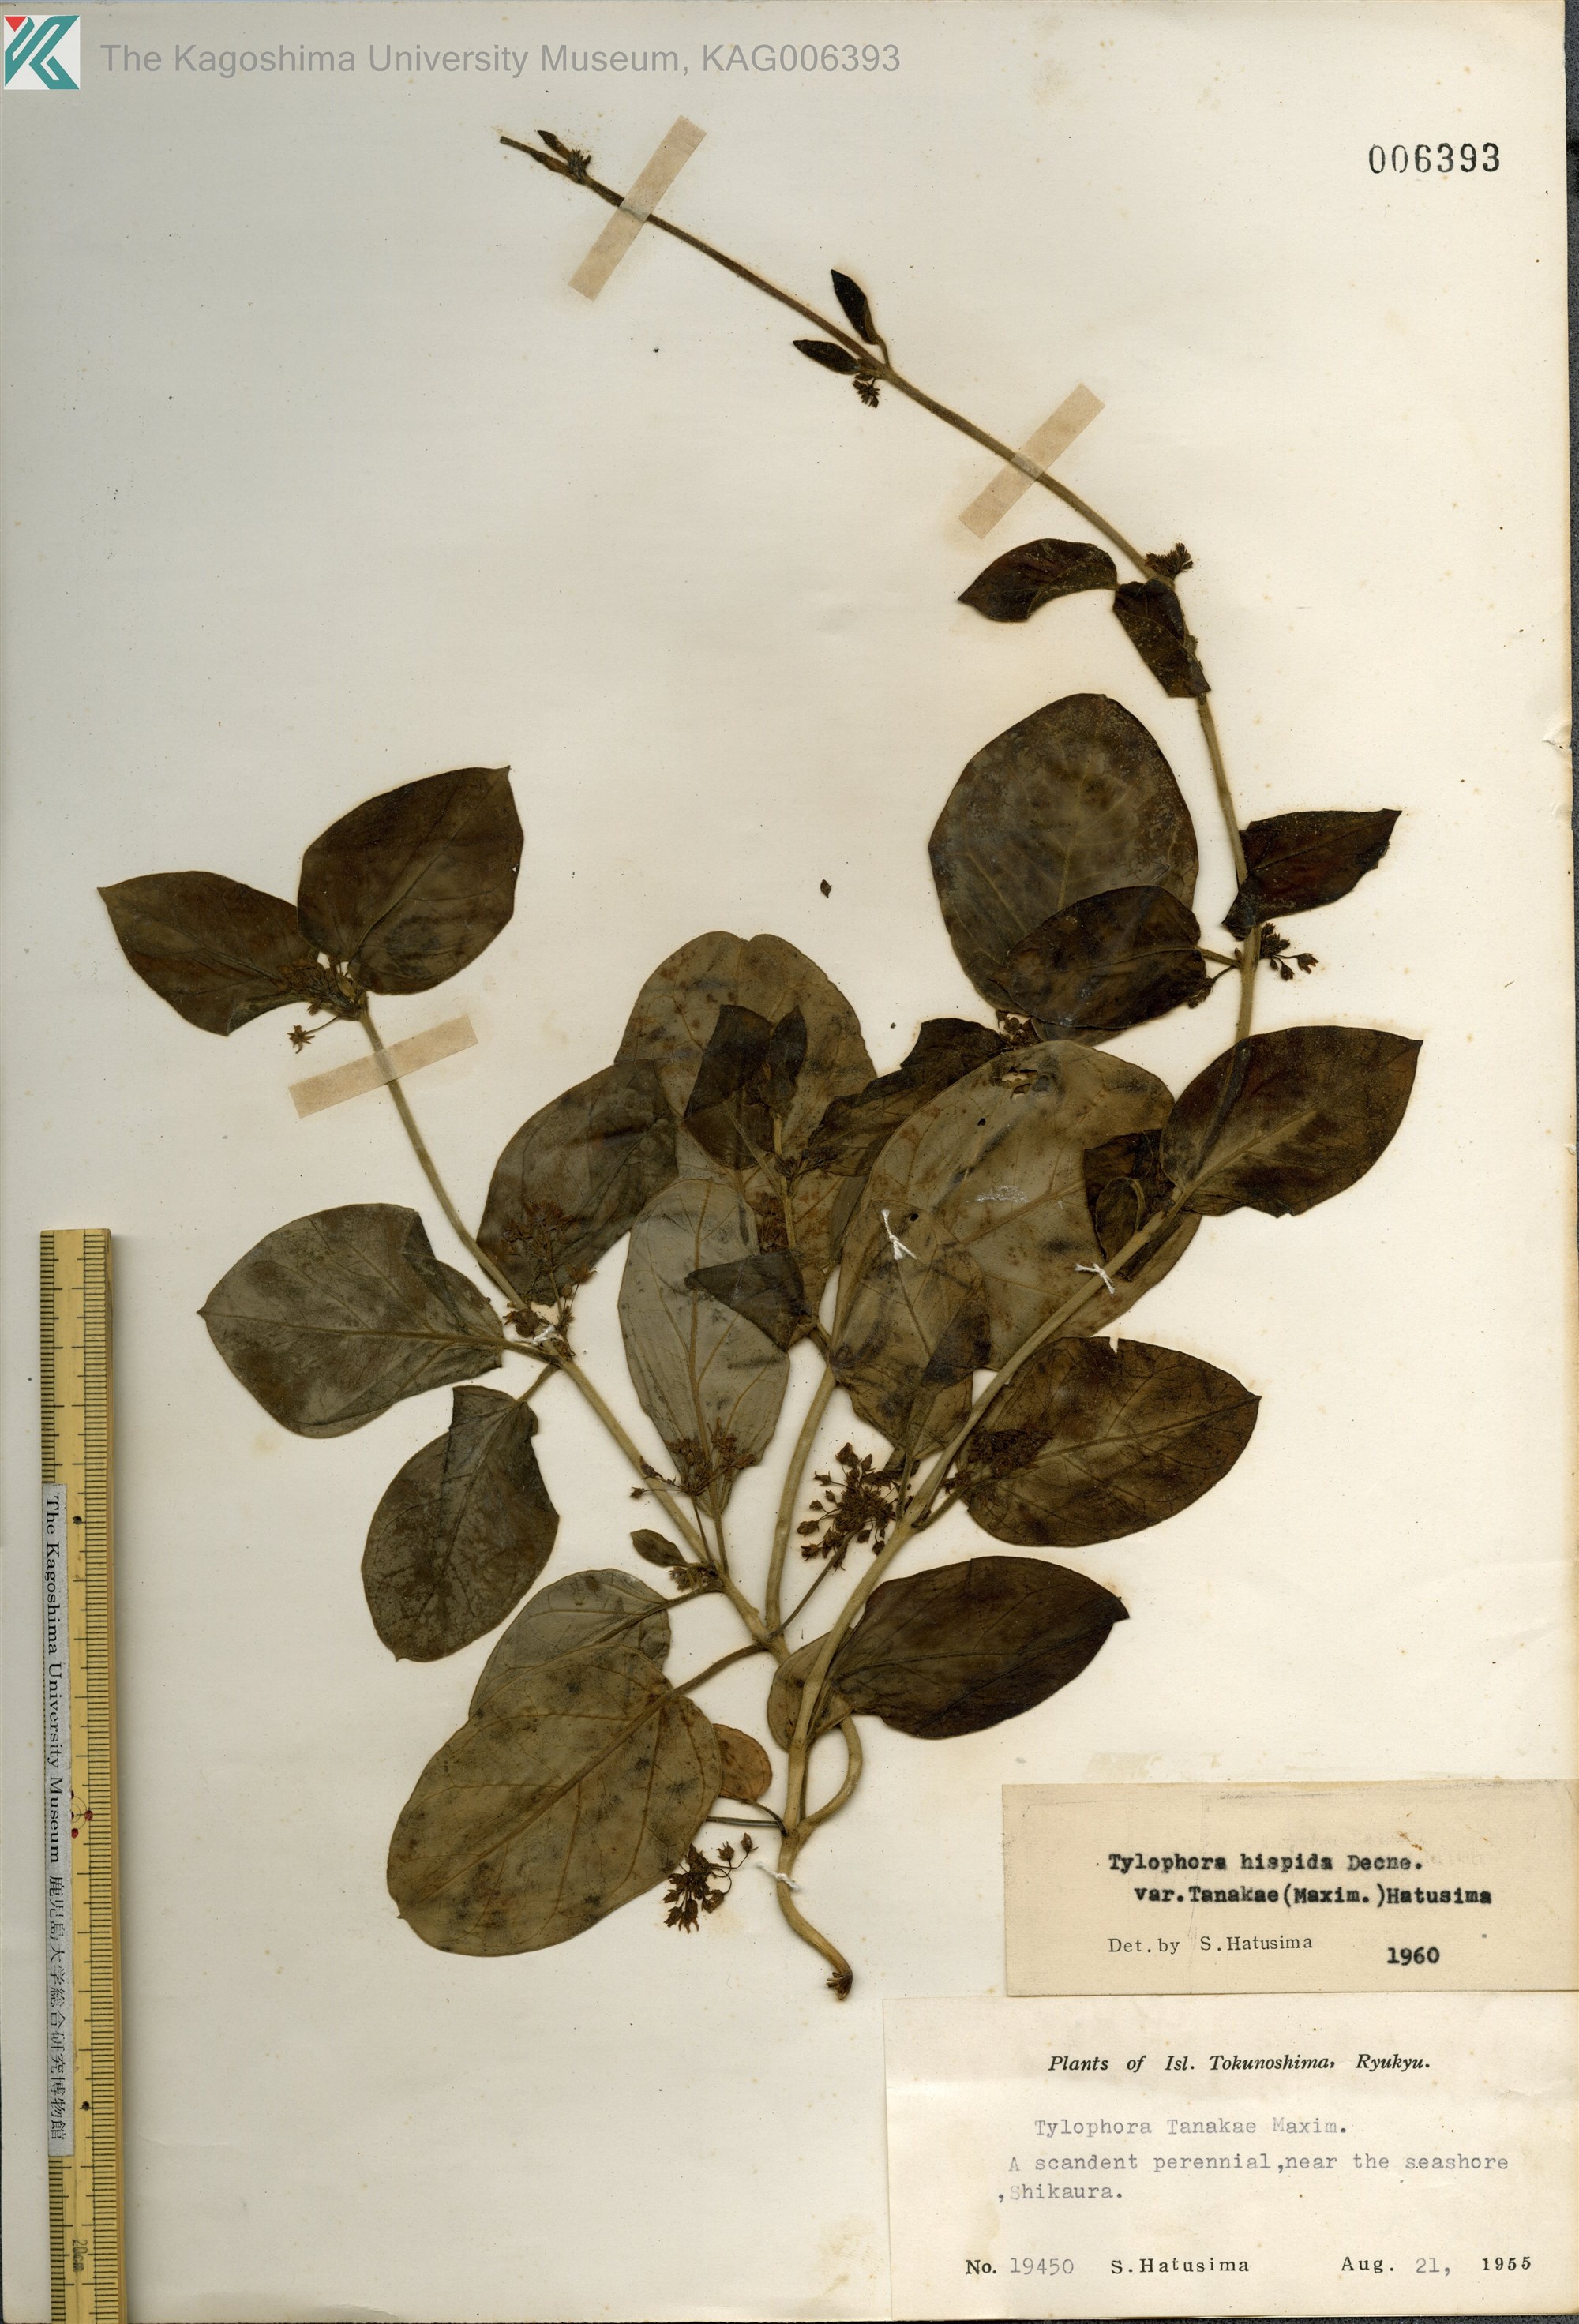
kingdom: Plantae
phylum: Tracheophyta
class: Magnoliopsida
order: Gentianales
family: Apocynaceae
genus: Vincetoxicum
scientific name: Vincetoxicum Tylophora tanakae
